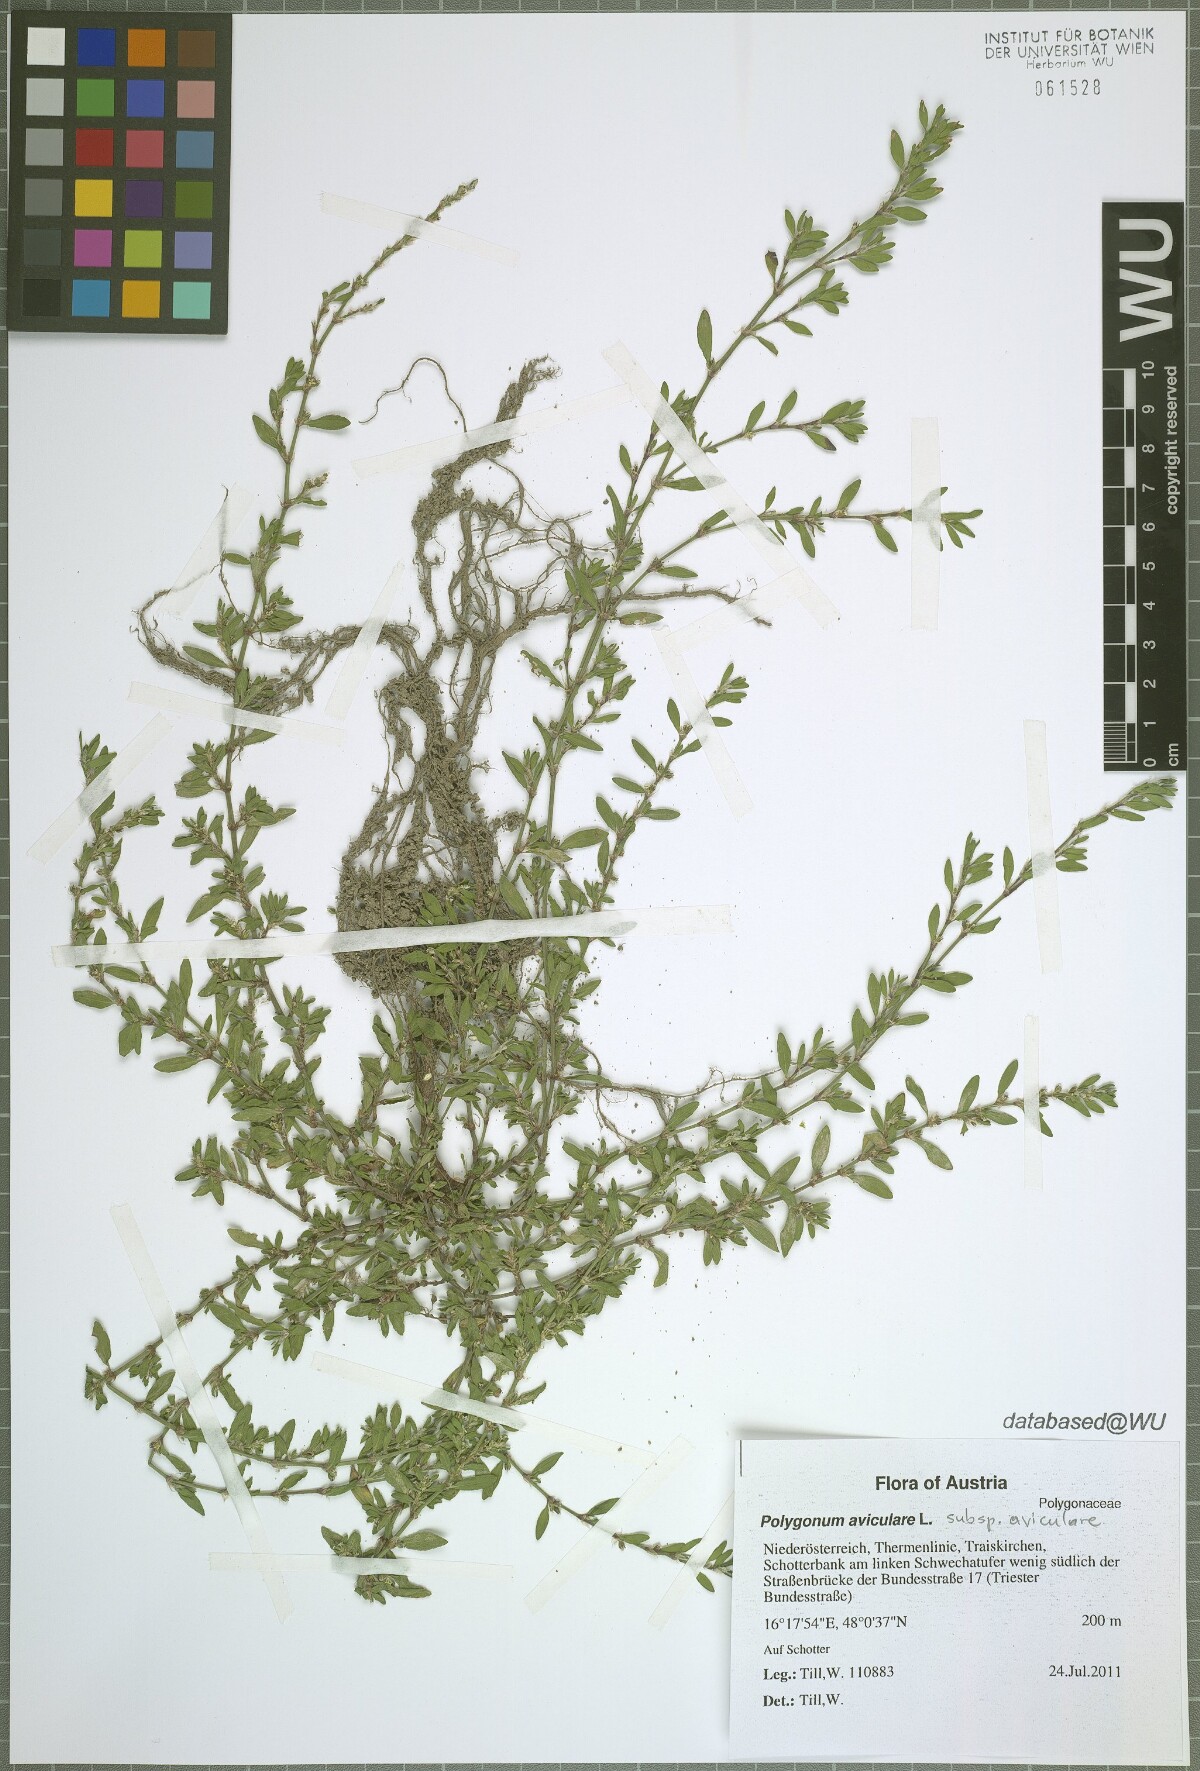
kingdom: Plantae
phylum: Tracheophyta
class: Magnoliopsida
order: Caryophyllales
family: Polygonaceae
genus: Polygonum
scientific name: Polygonum aviculare
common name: Prostrate knotweed
